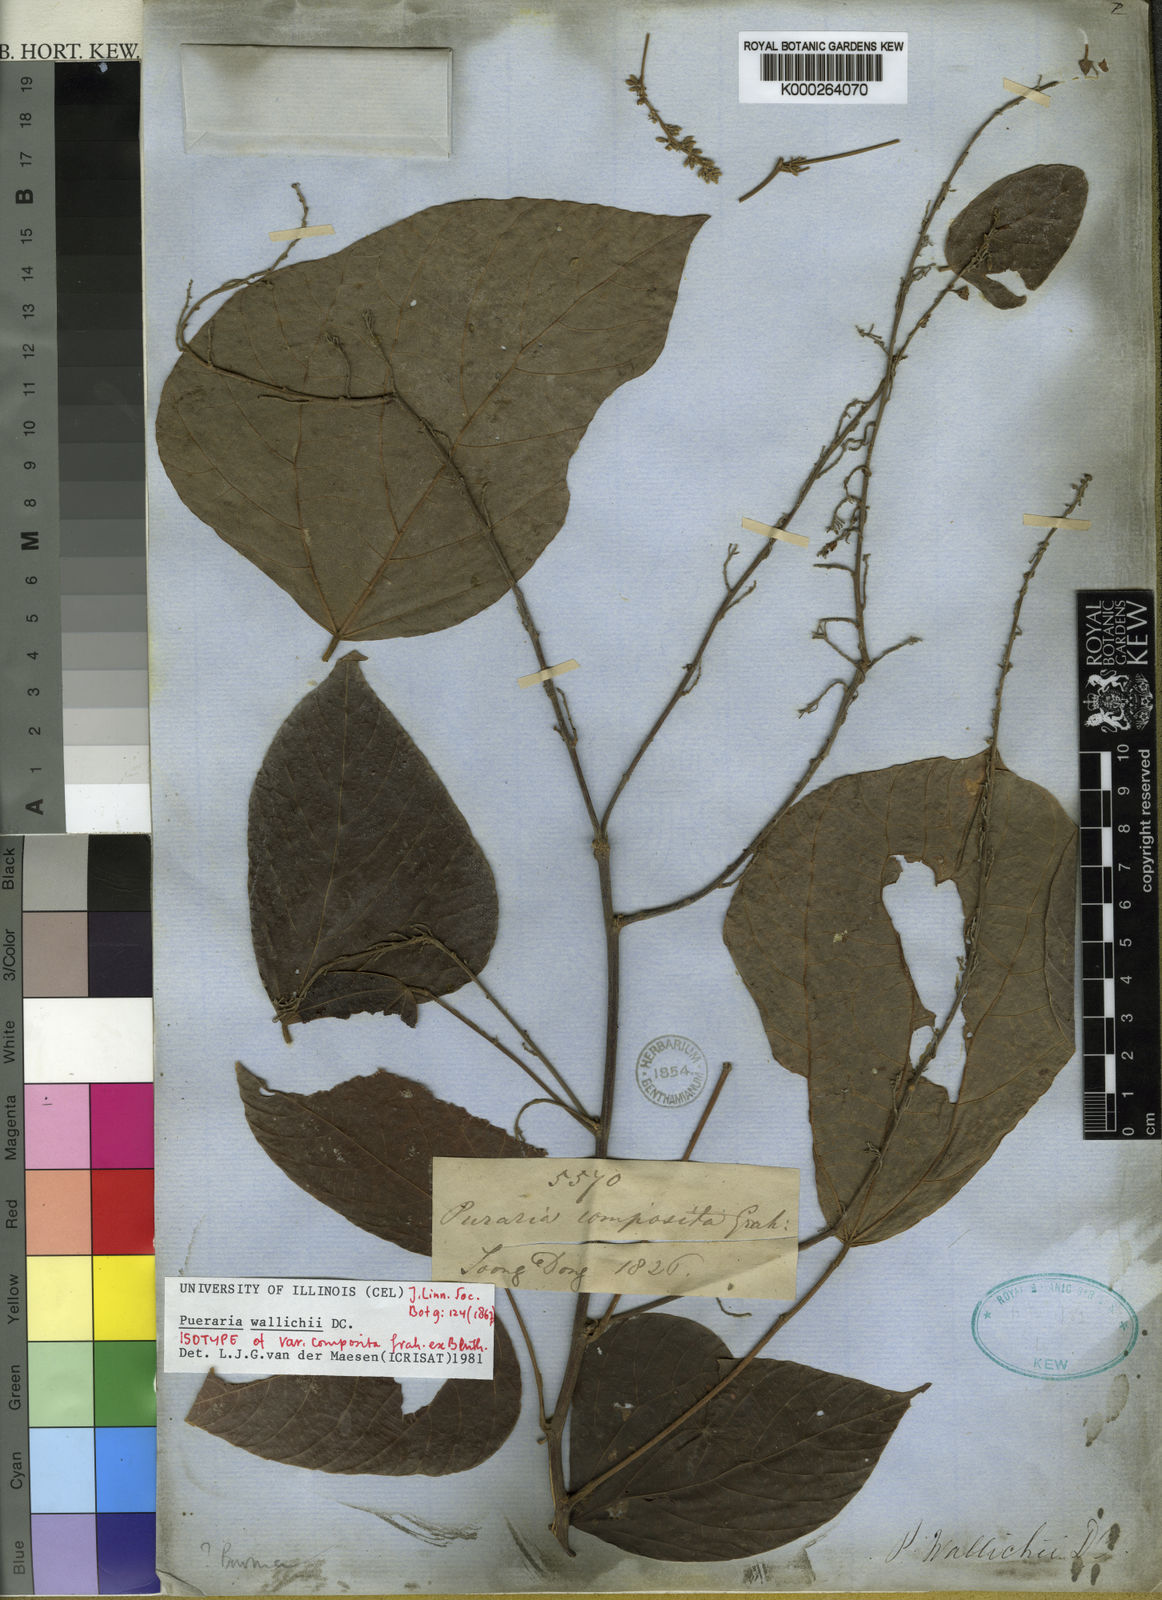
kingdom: Plantae
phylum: Tracheophyta
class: Magnoliopsida
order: Fabales
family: Fabaceae
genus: Haymondia
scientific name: Haymondia wallichii
